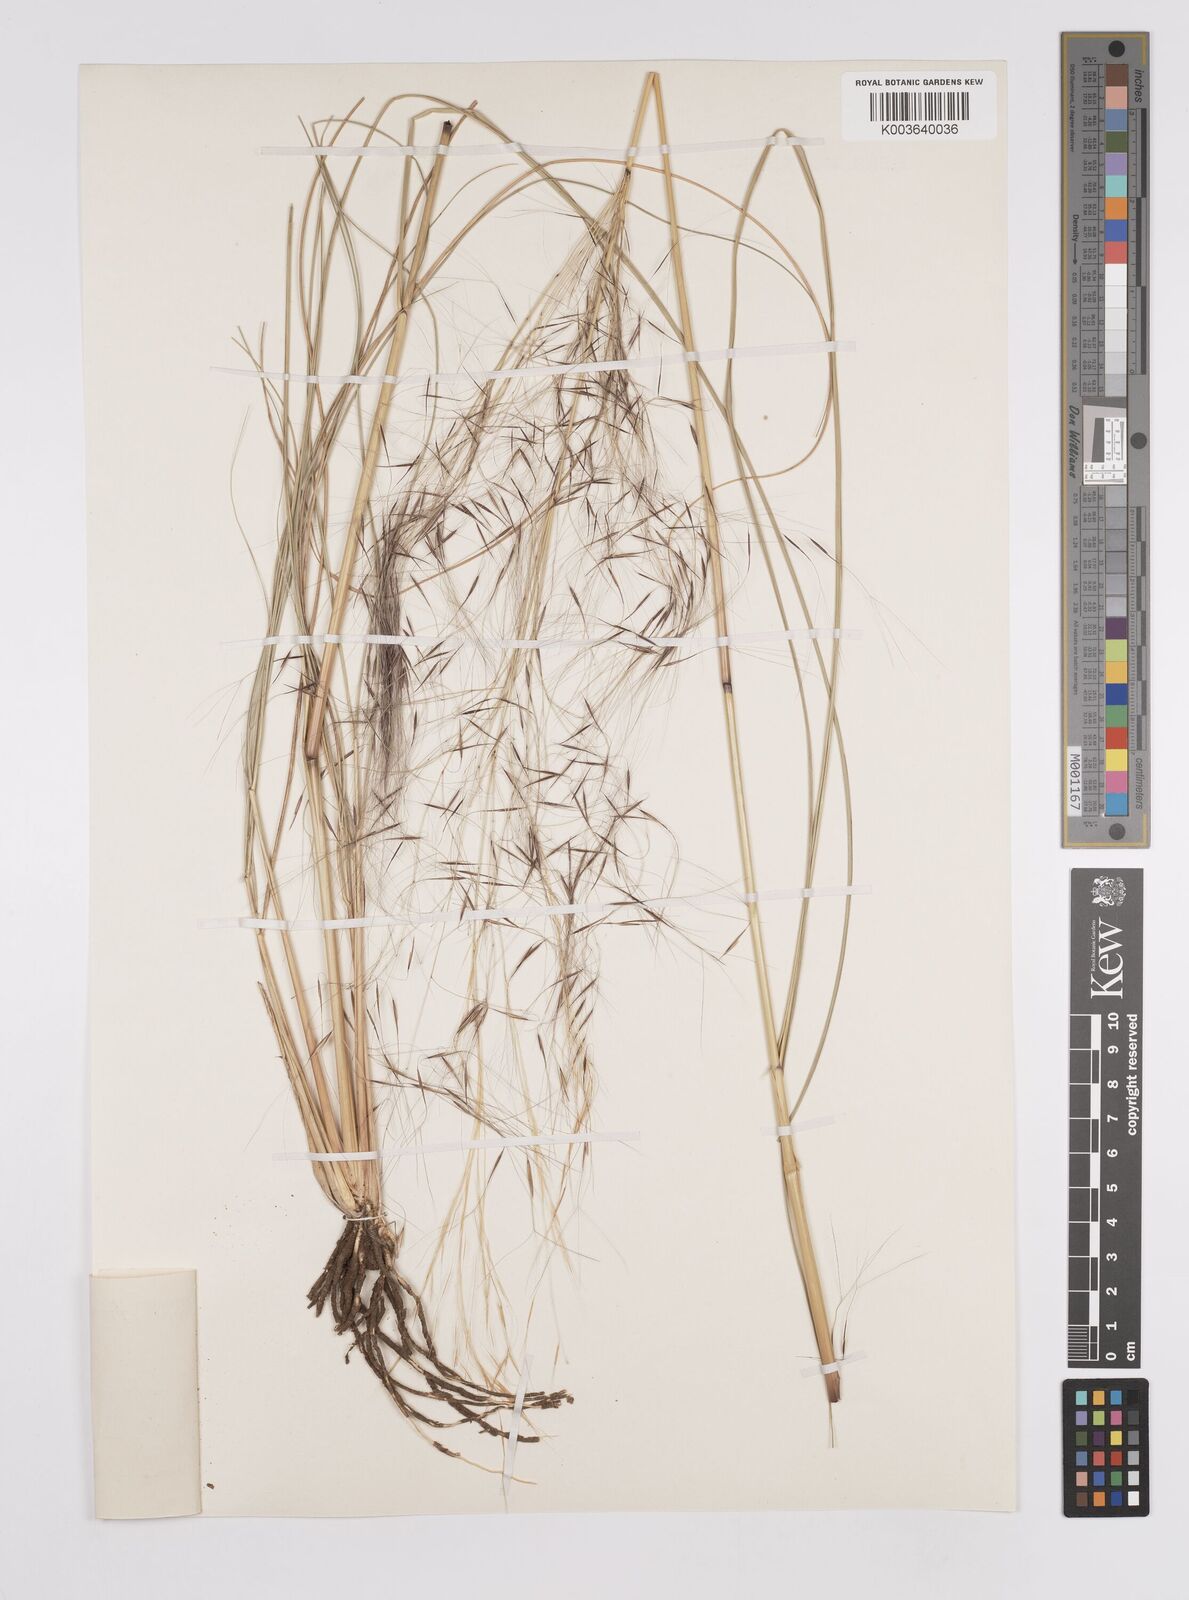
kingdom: Plantae
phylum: Tracheophyta
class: Liliopsida
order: Poales
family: Poaceae
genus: Aristida
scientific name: Aristida meridionalis
